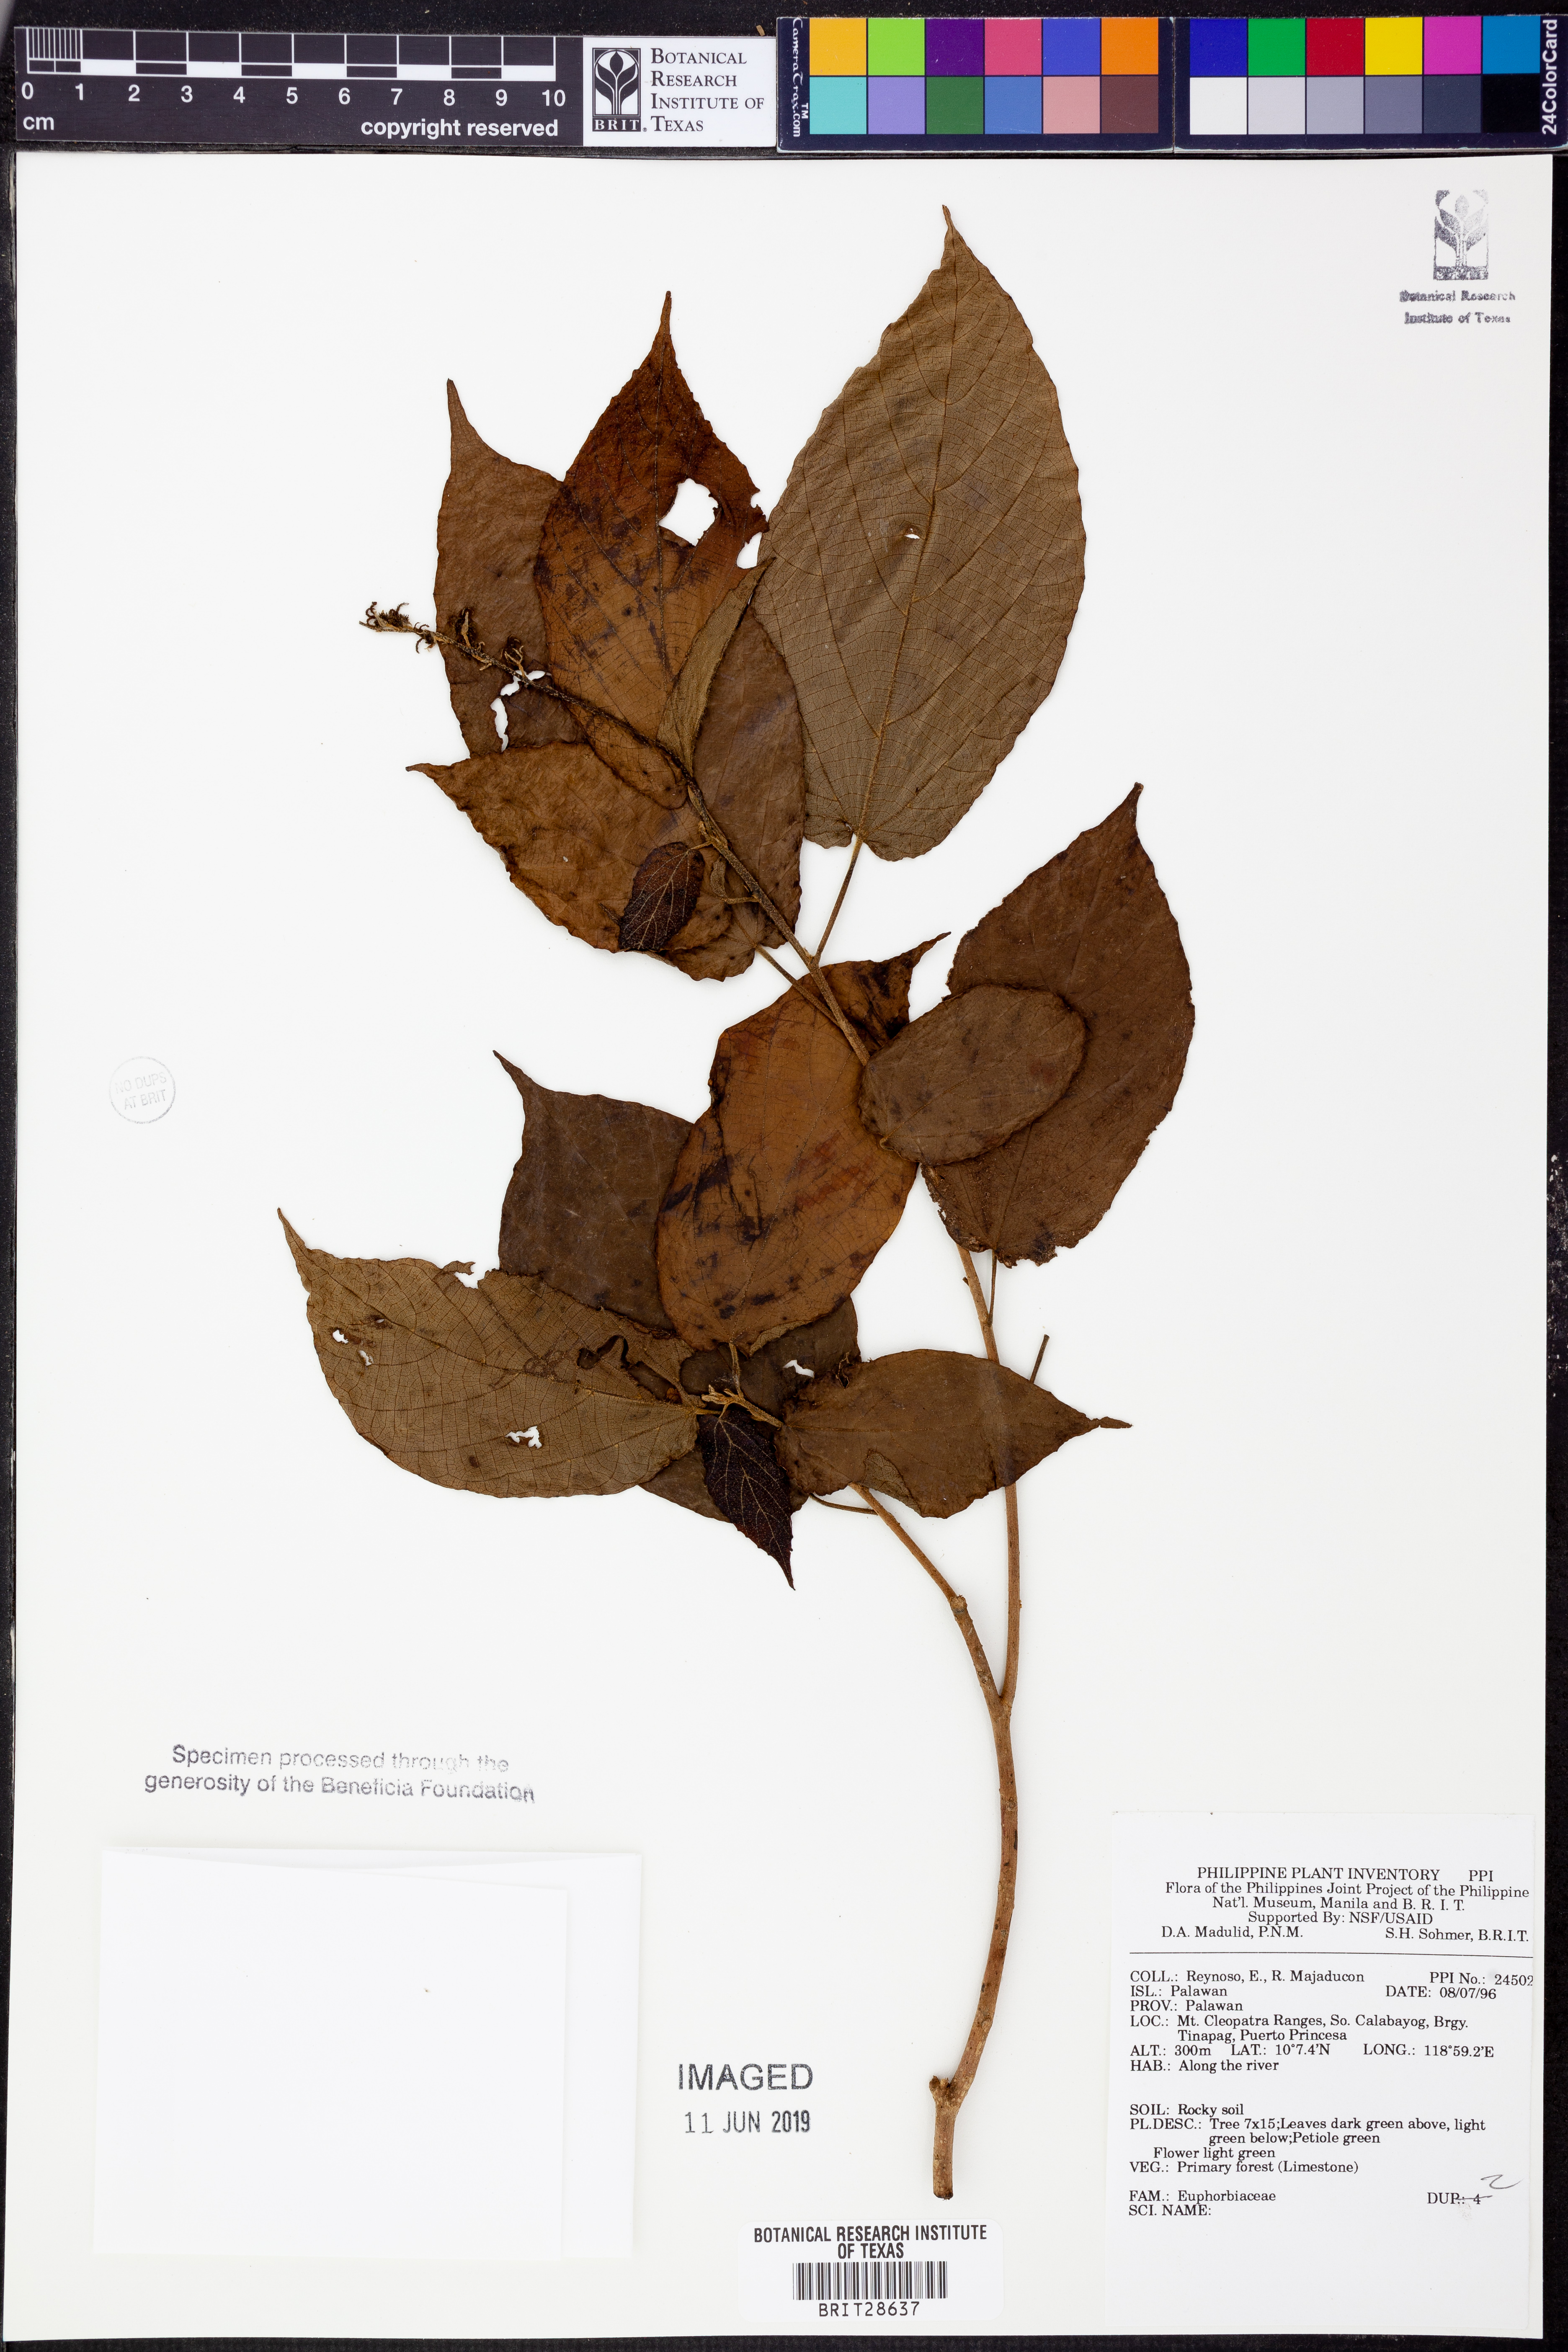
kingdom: Plantae
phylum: Tracheophyta
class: Magnoliopsida
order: Malpighiales
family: Euphorbiaceae
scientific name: Euphorbiaceae
